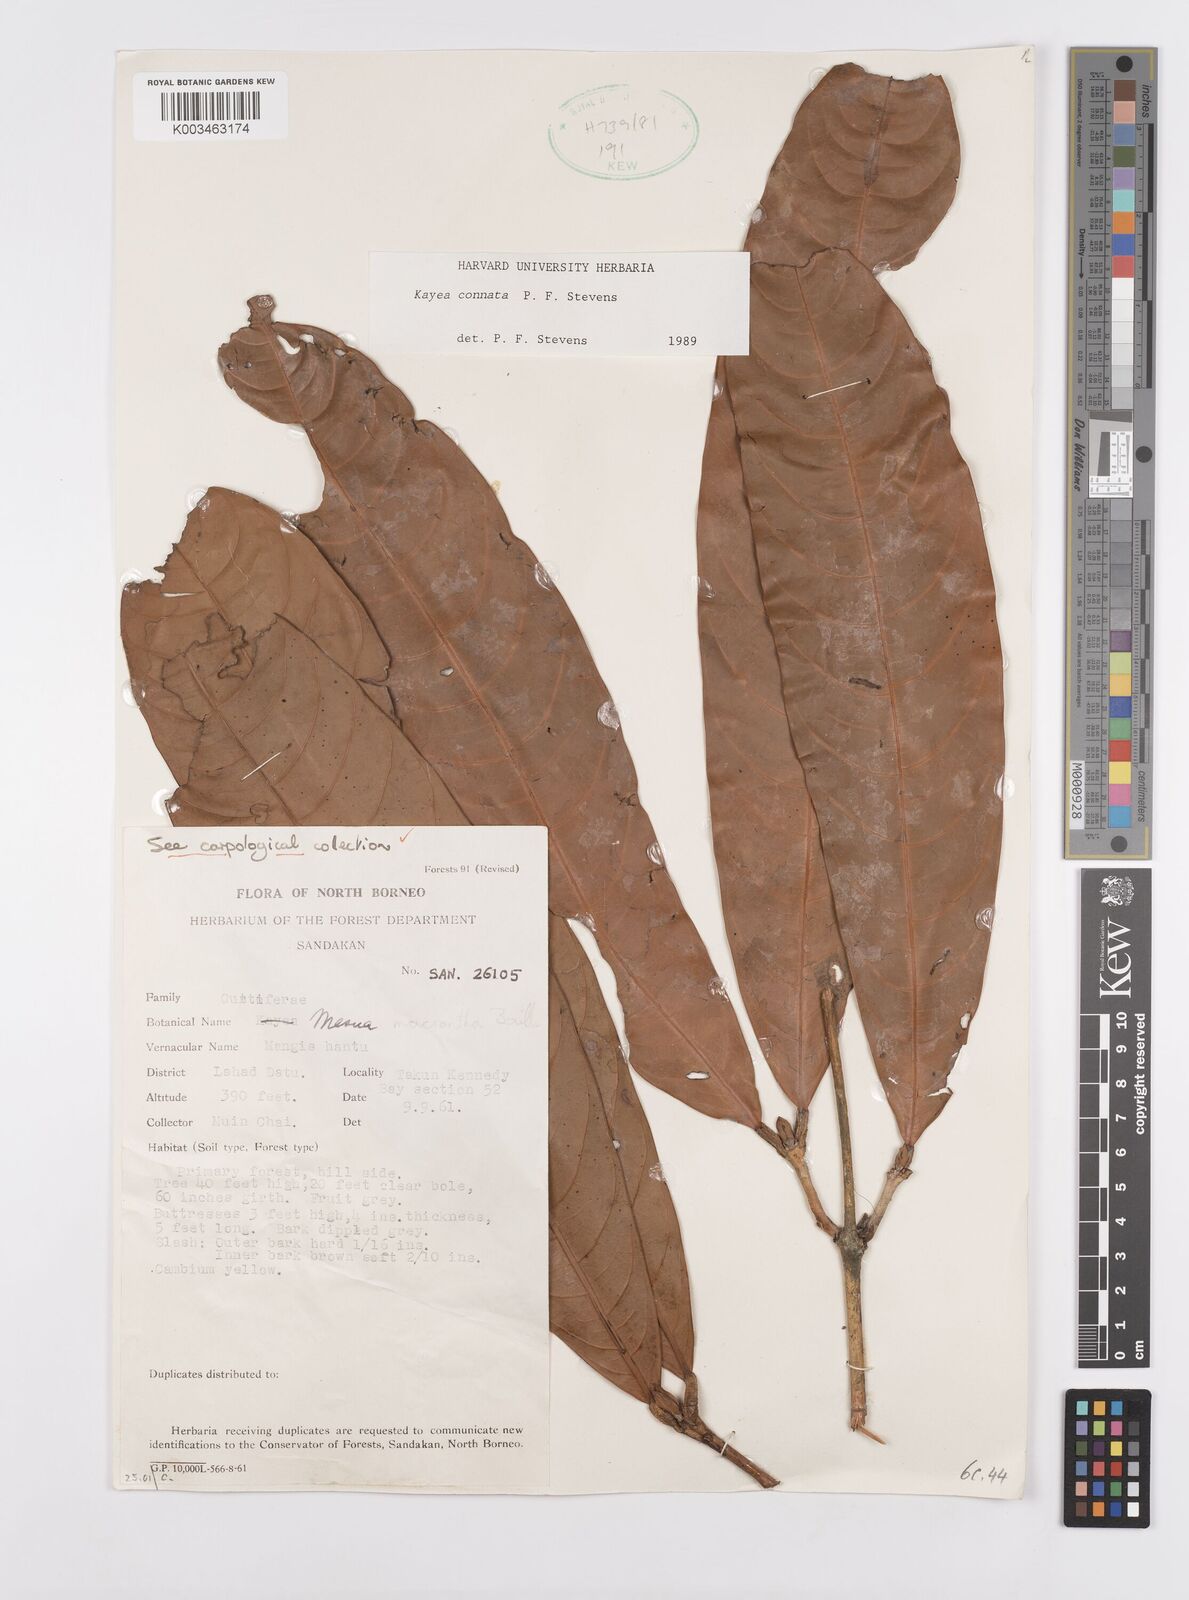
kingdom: Plantae
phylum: Tracheophyta
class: Magnoliopsida
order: Malpighiales
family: Calophyllaceae
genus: Kayea
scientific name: Kayea
